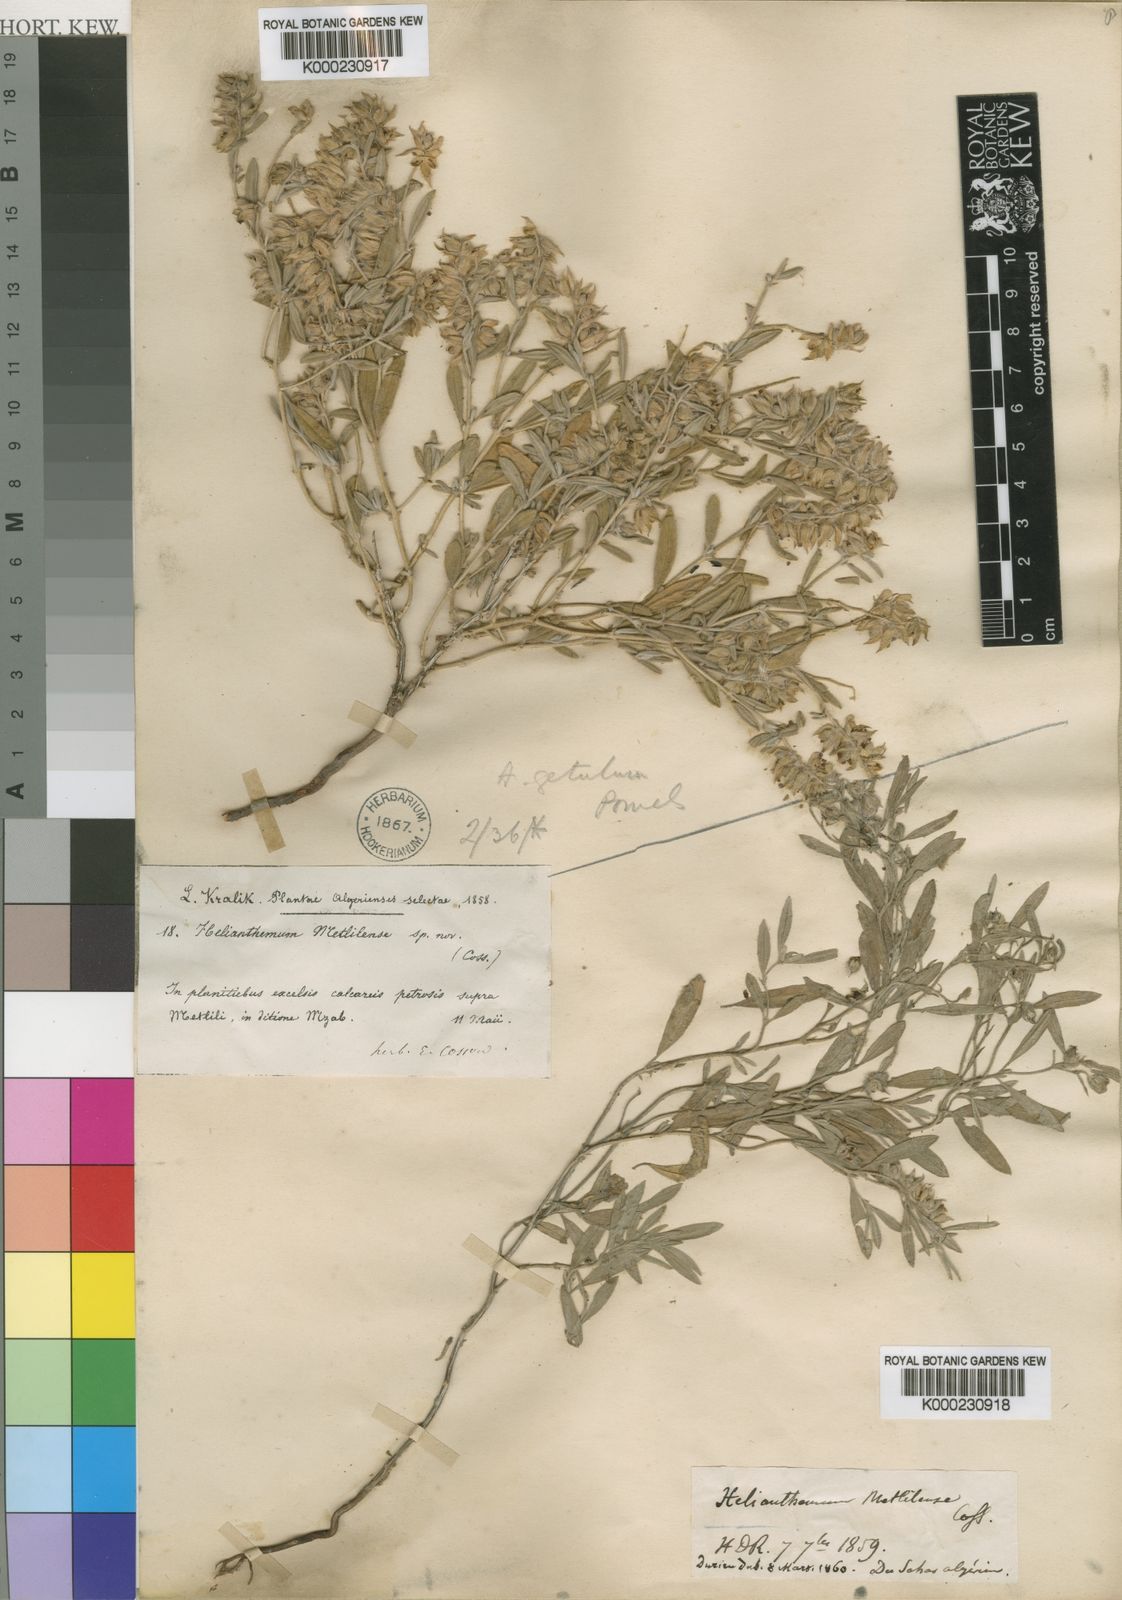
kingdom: Plantae
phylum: Tracheophyta
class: Magnoliopsida
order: Malvales
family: Cistaceae
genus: Helianthemum
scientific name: Helianthemum getulum
